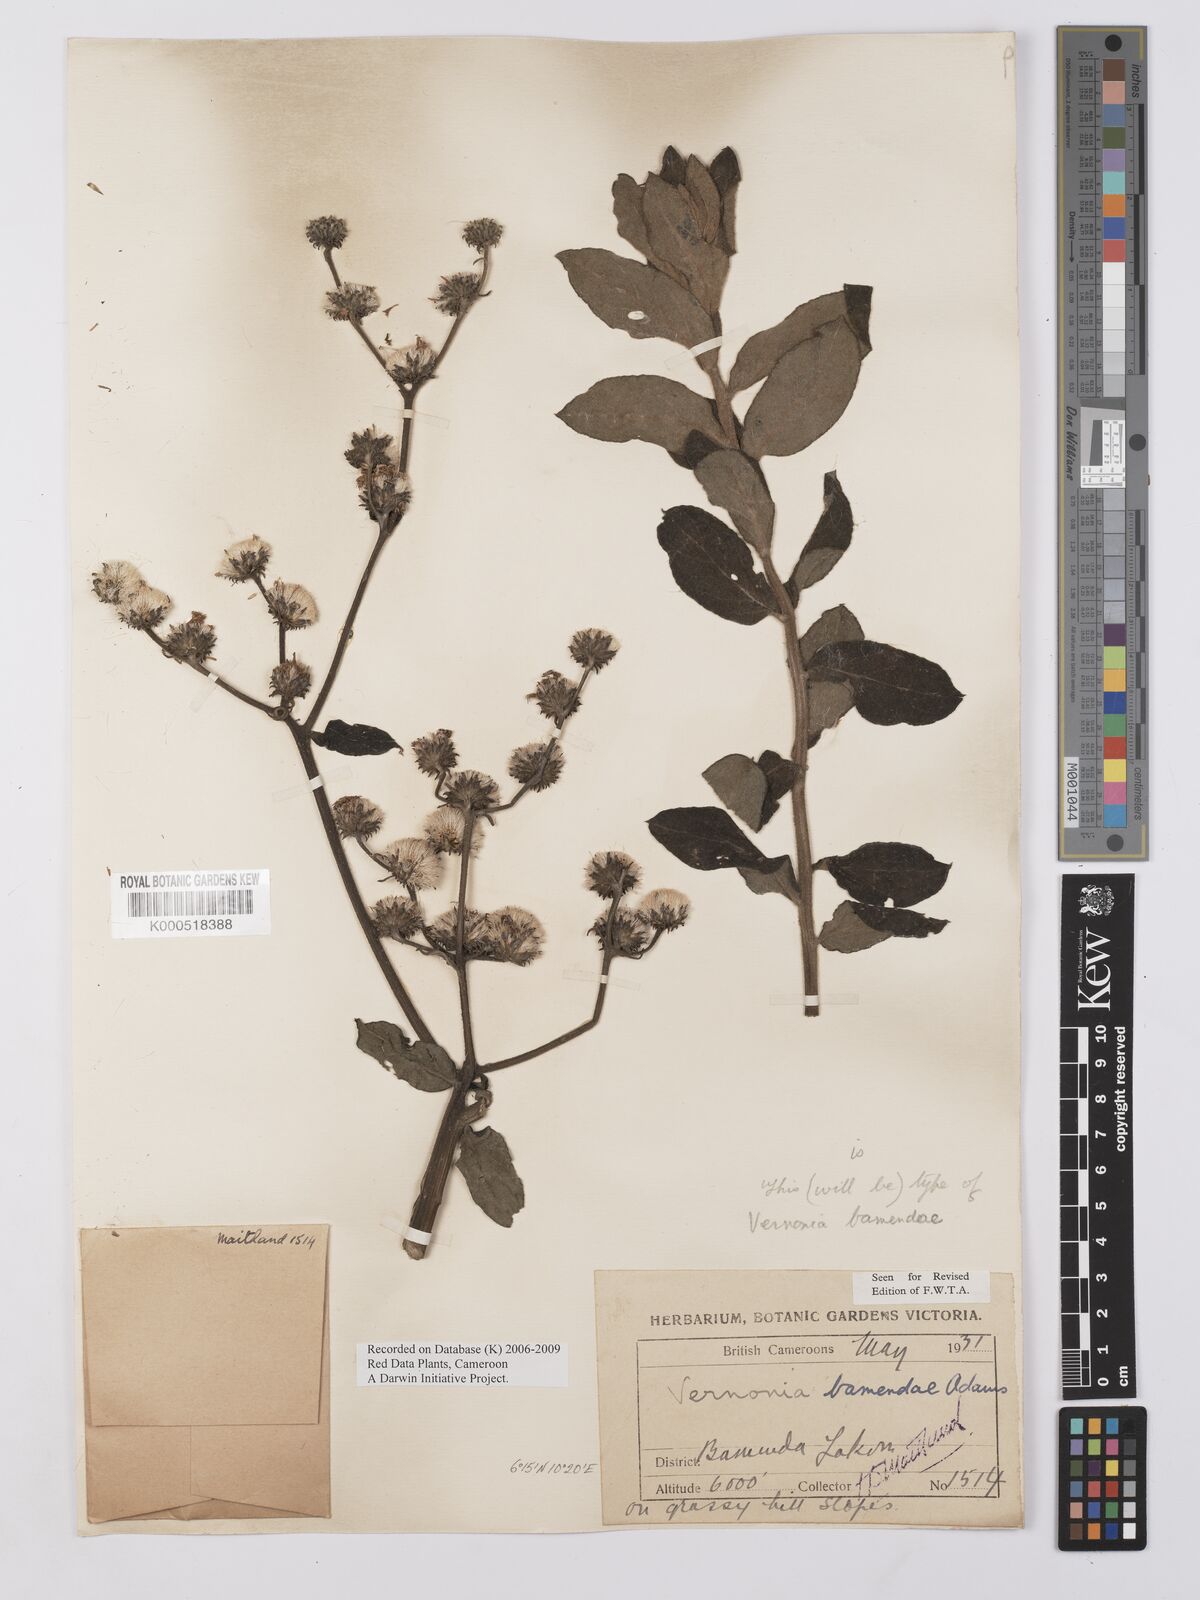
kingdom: Plantae
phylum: Tracheophyta
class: Magnoliopsida
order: Asterales
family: Asteraceae
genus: Orbivestus
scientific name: Orbivestus bamendae
